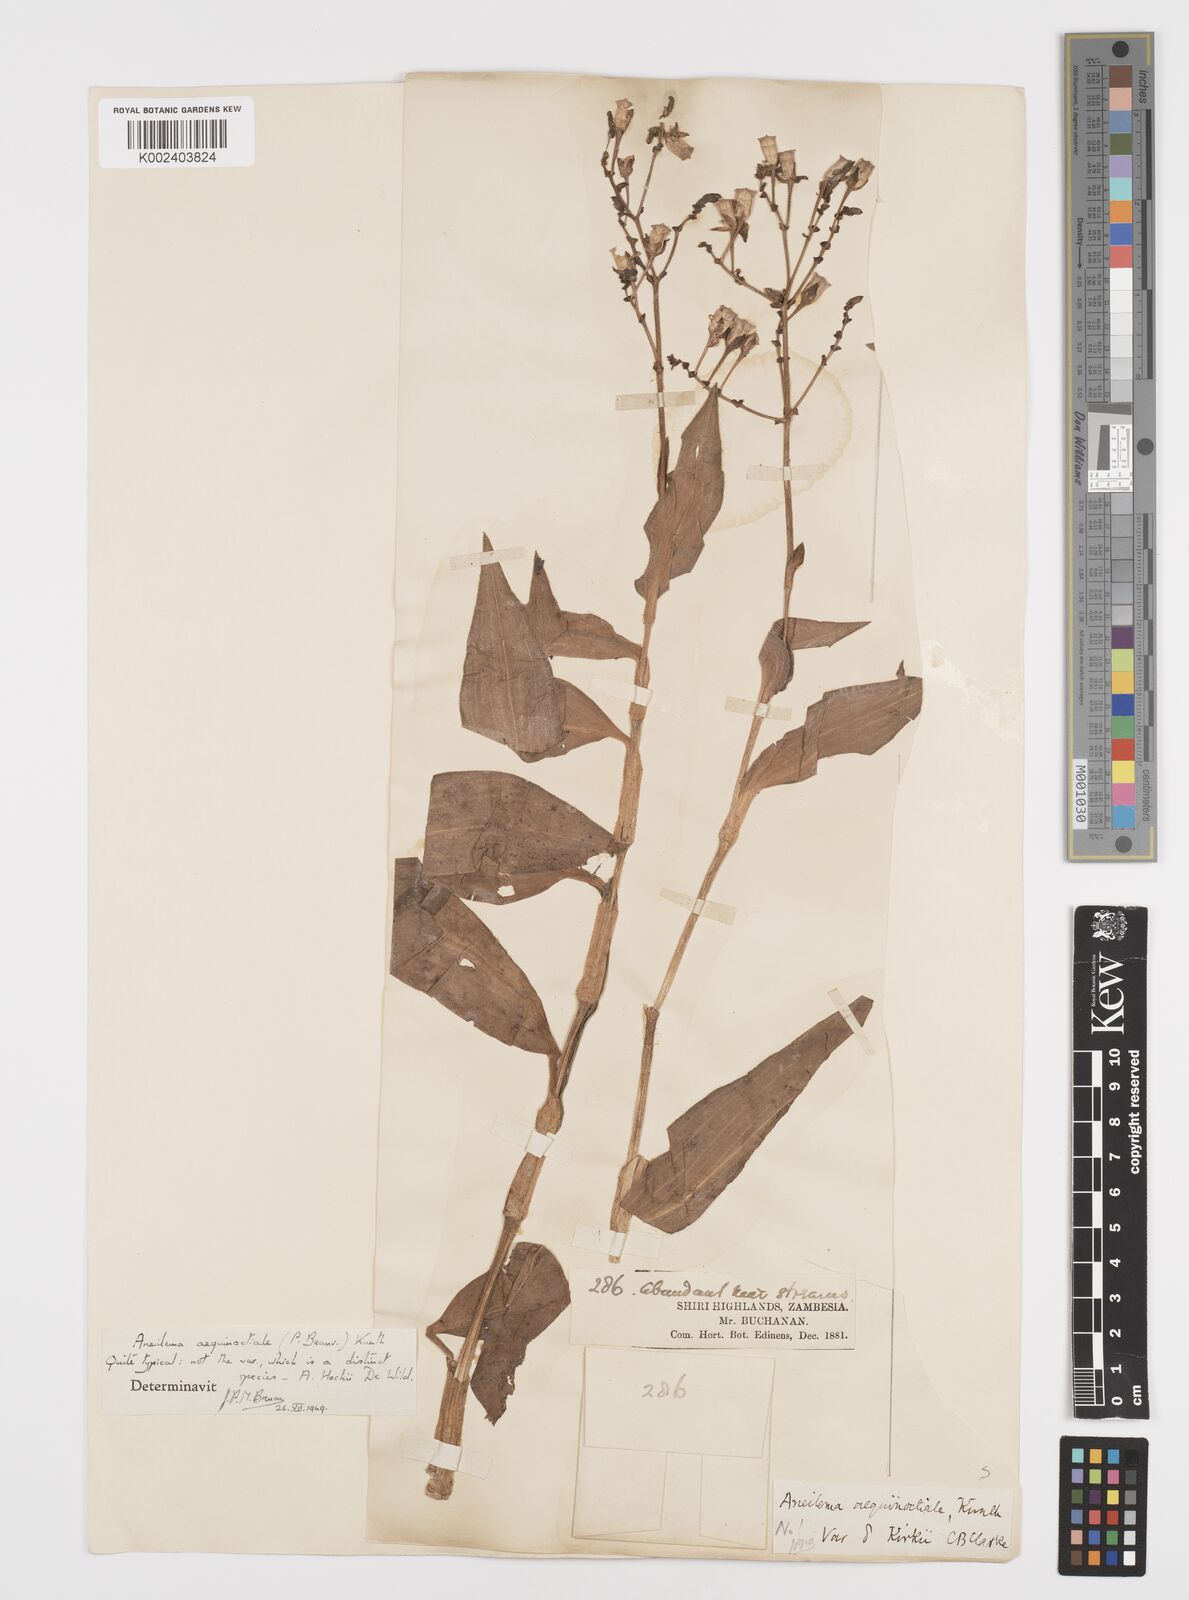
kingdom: Plantae
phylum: Tracheophyta
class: Liliopsida
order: Commelinales
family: Commelinaceae
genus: Aneilema
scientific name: Aneilema aequinoctiale
